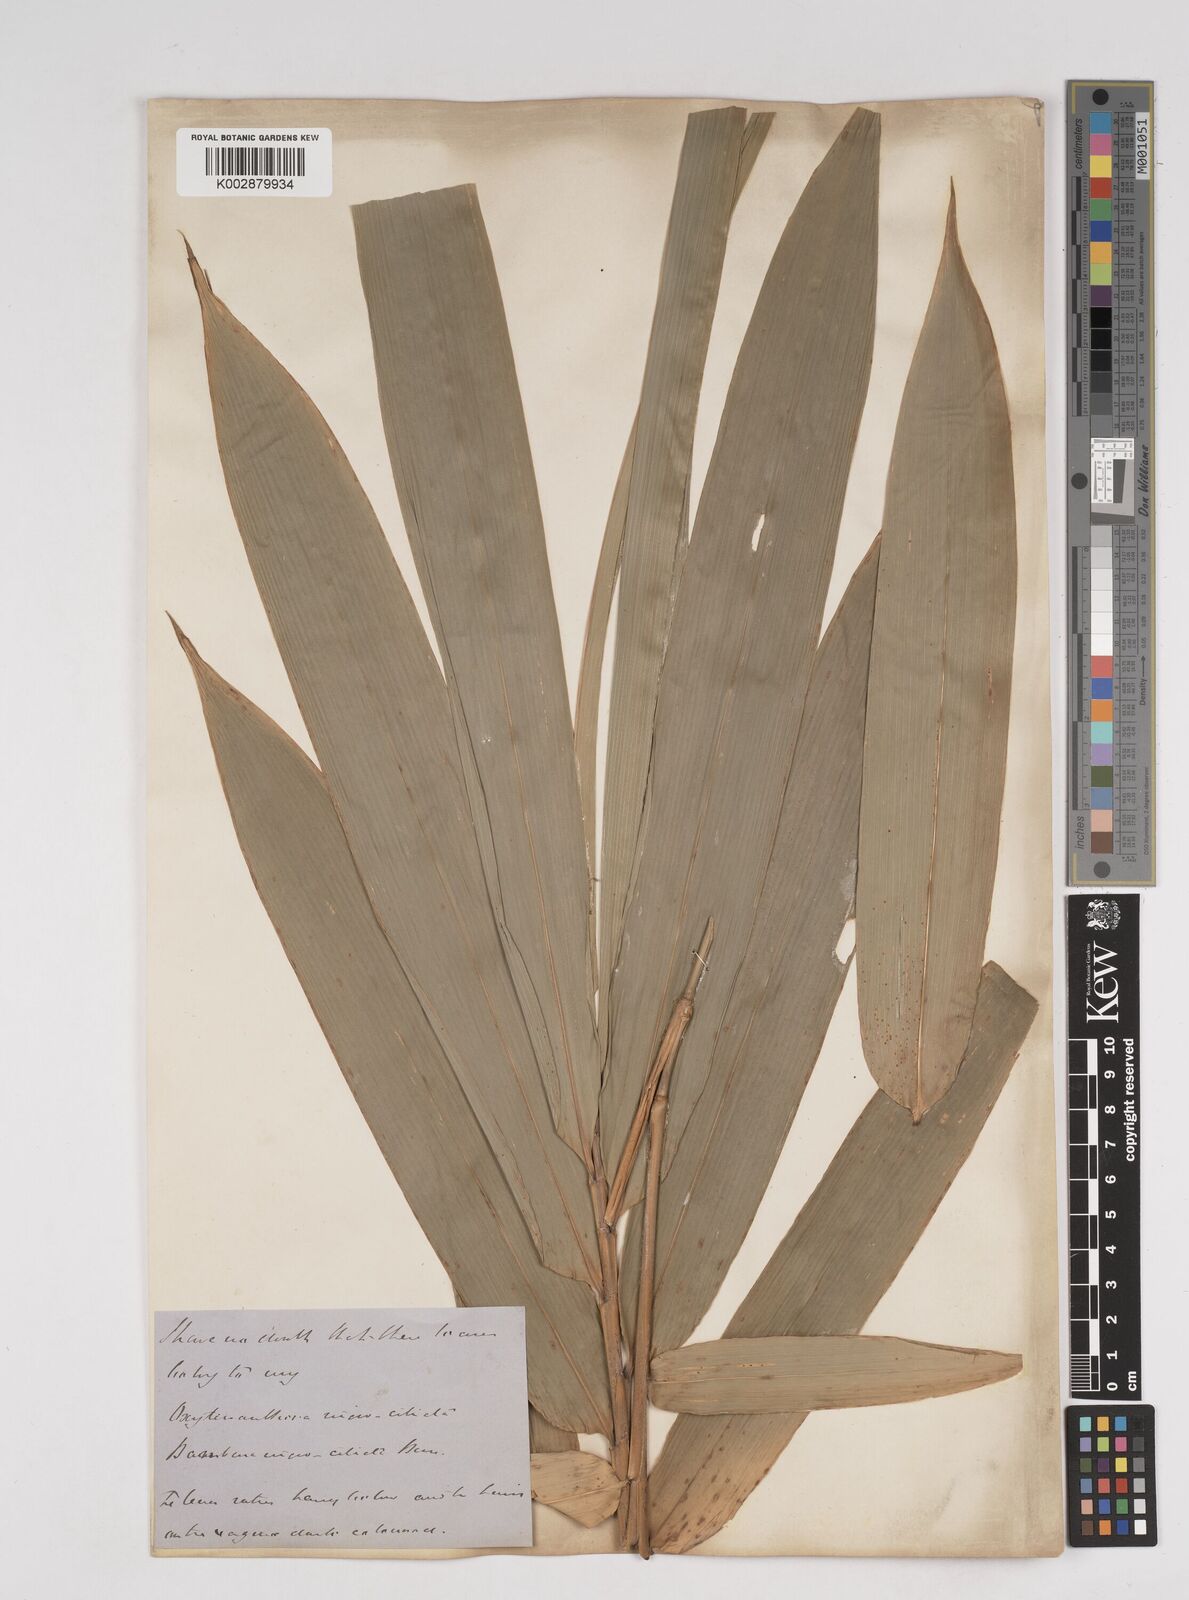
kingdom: Plantae
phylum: Tracheophyta
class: Liliopsida
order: Poales
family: Poaceae
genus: Gigantochloa
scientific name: Gigantochloa nigrociliata
